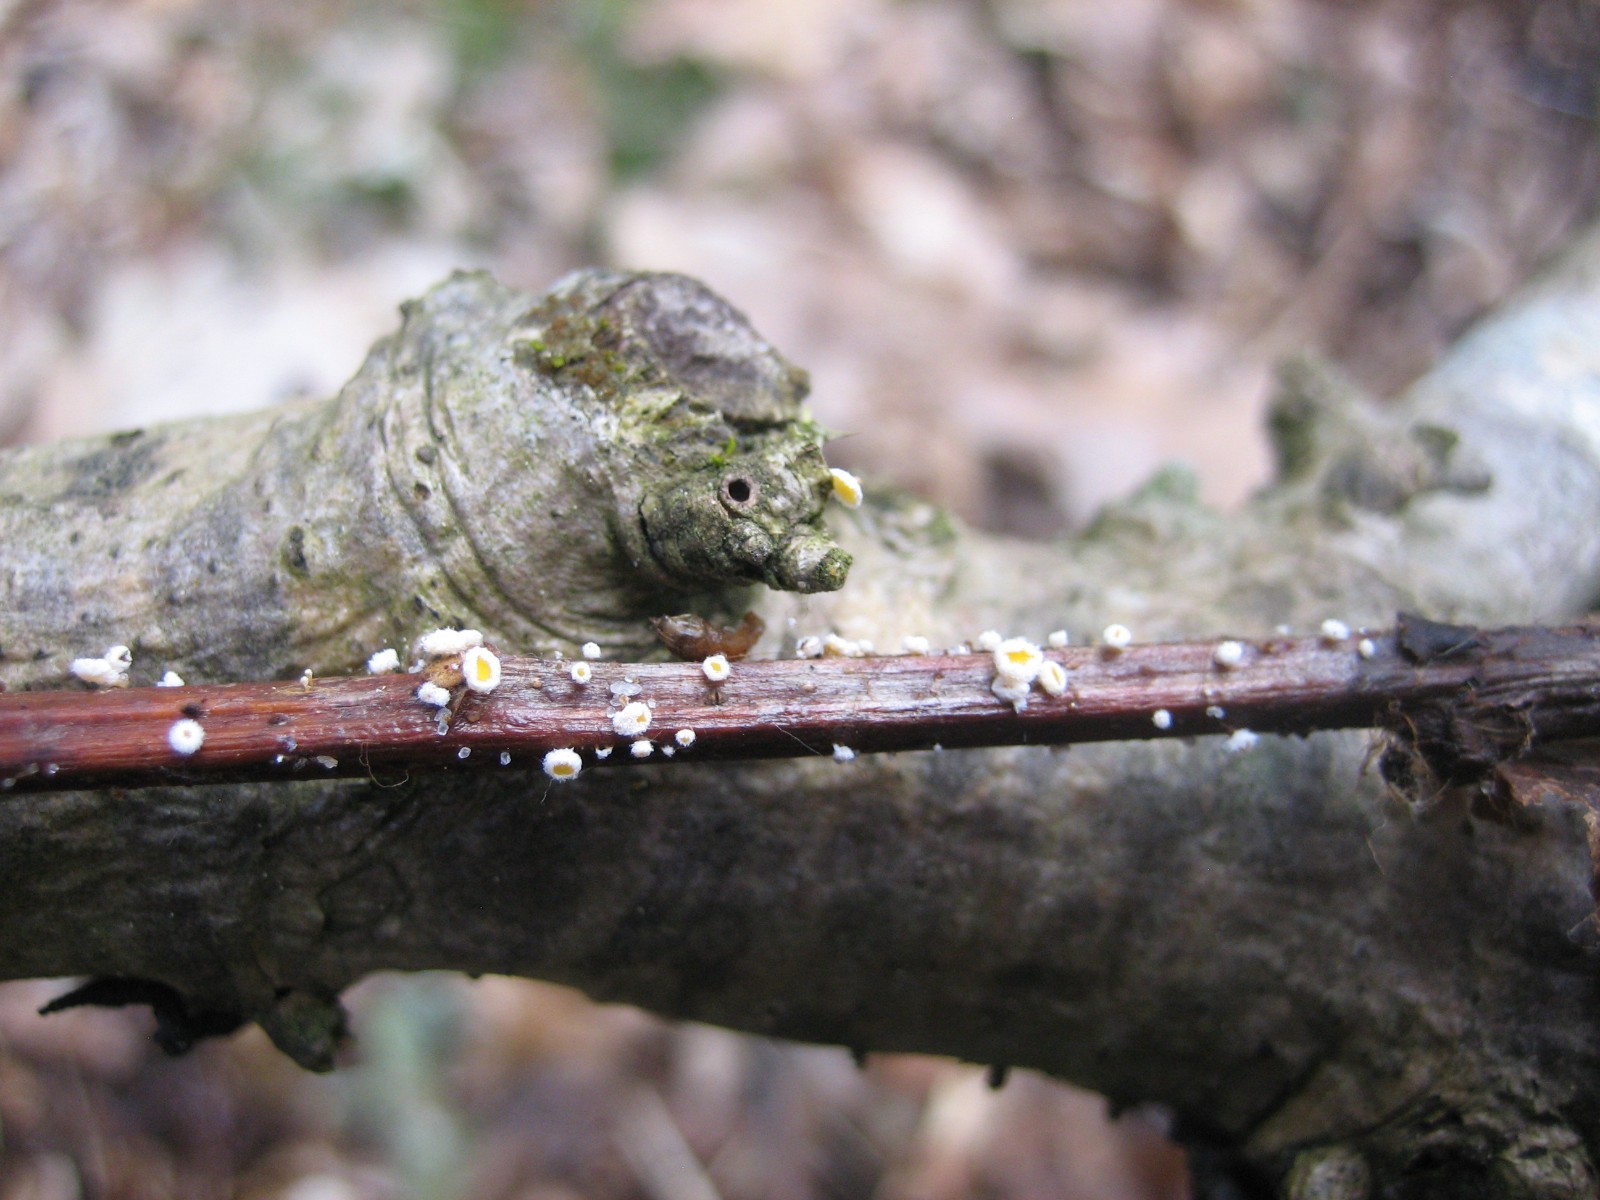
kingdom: Fungi
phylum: Ascomycota
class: Leotiomycetes
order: Helotiales
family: Lachnaceae
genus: Capitotricha
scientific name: Capitotricha bicolor
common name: prægtig frynseskive
